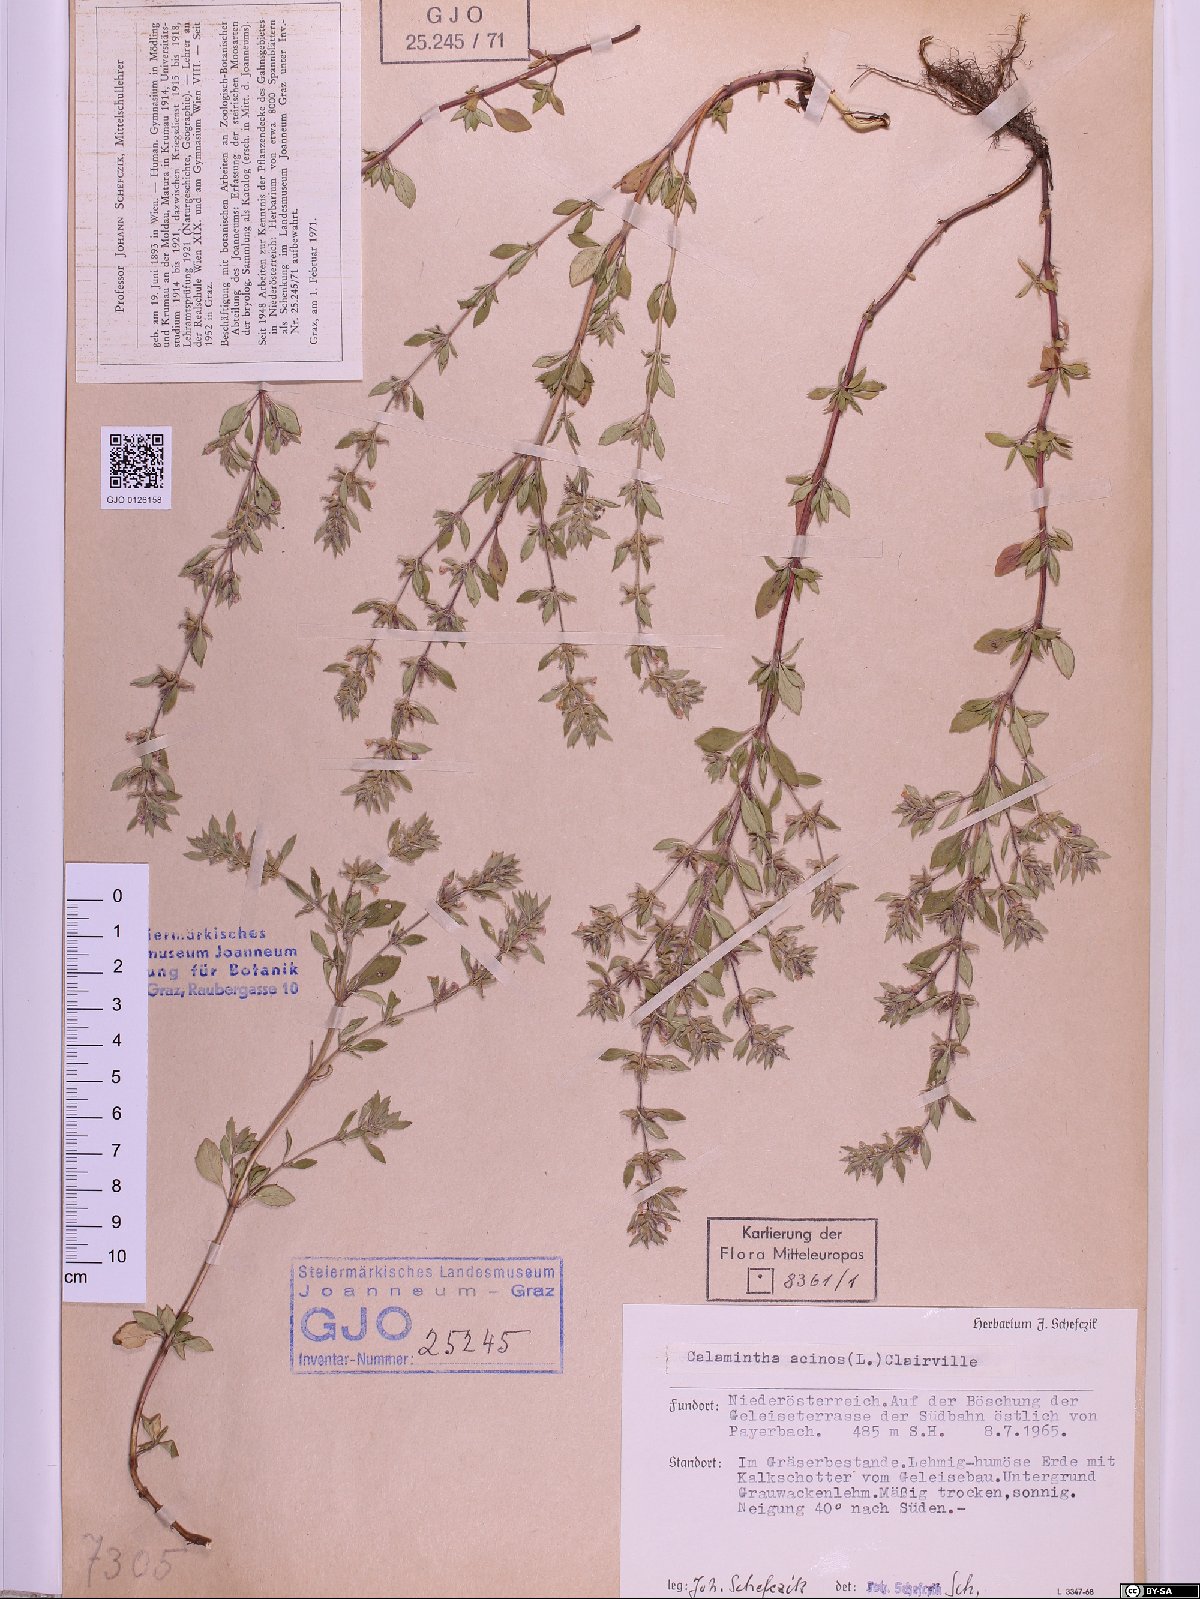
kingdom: Plantae
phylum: Tracheophyta
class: Magnoliopsida
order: Lamiales
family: Lamiaceae
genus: Clinopodium
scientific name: Clinopodium acinos
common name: Basil thyme
